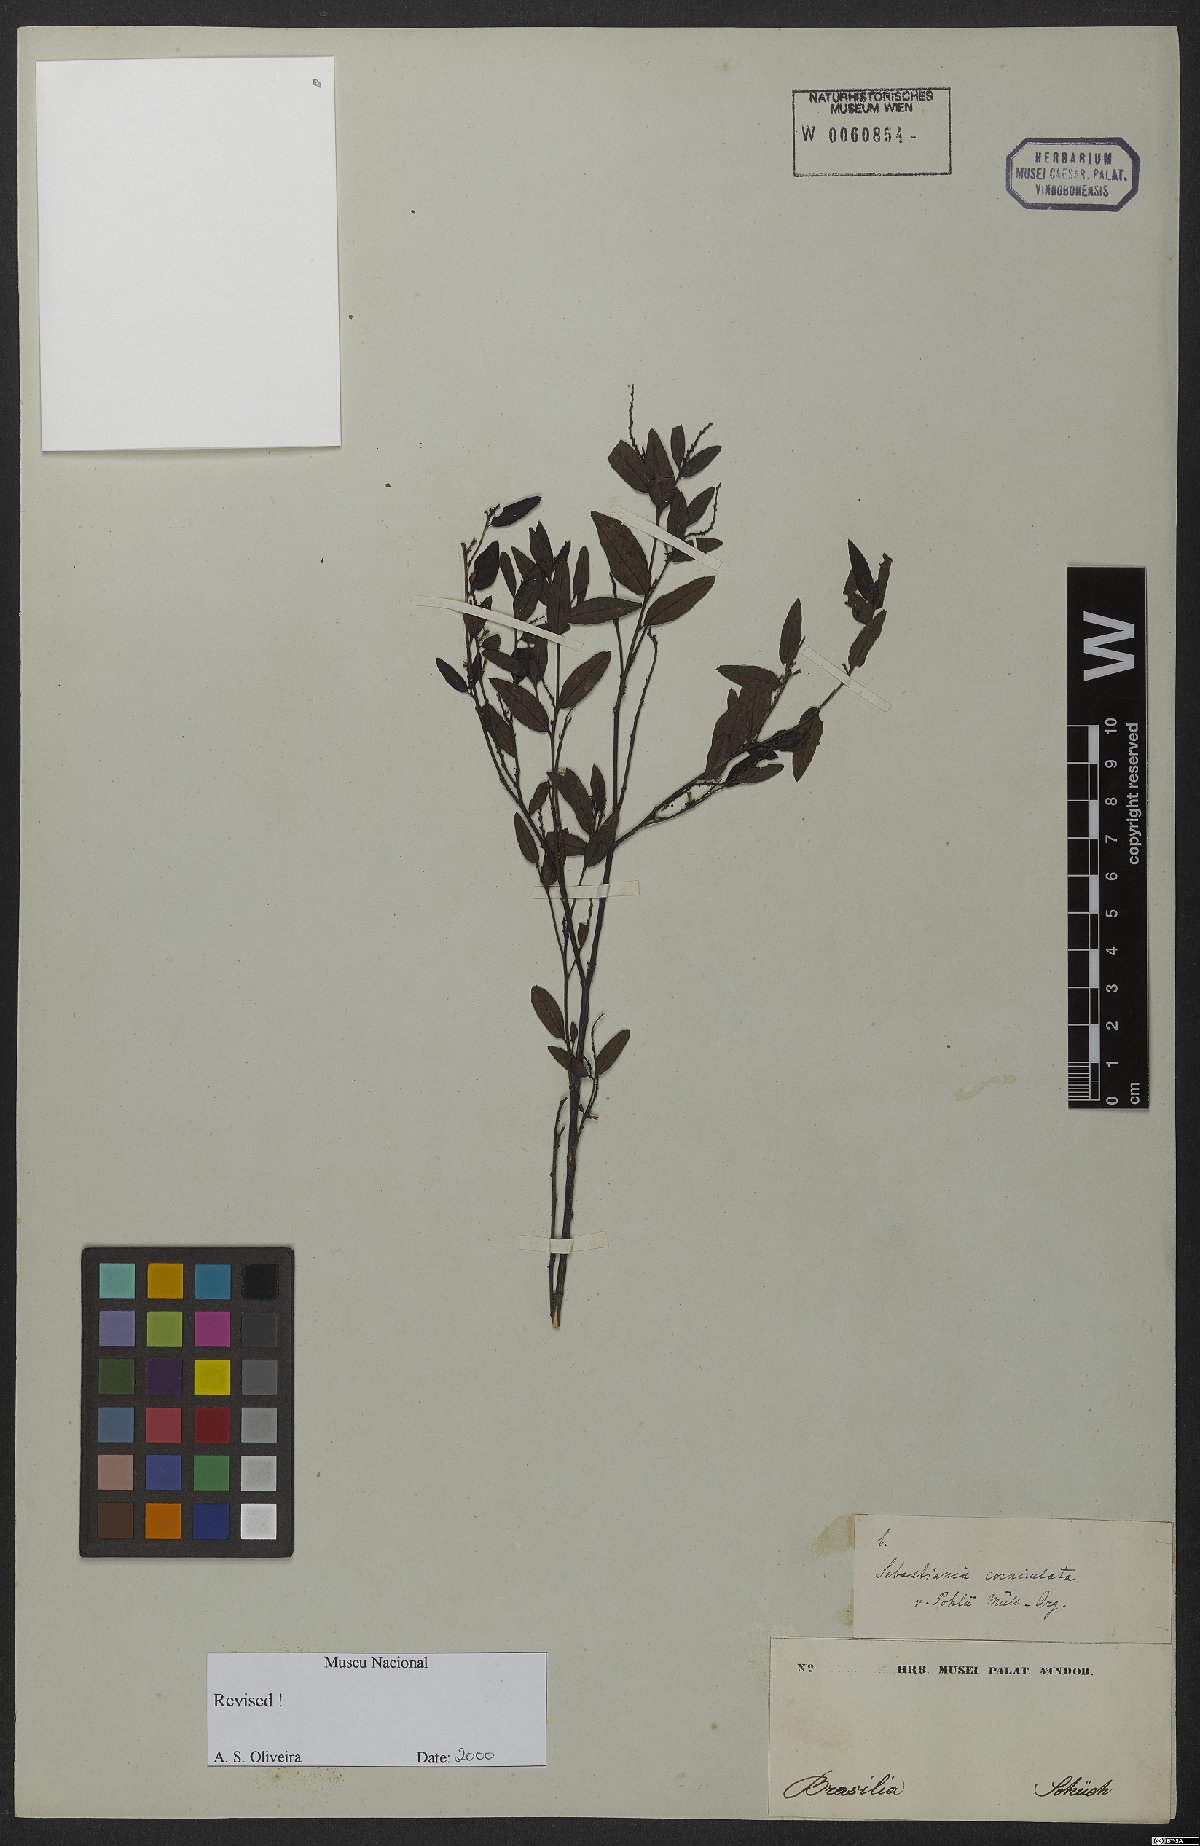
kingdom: Plantae
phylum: Tracheophyta
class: Magnoliopsida
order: Malpighiales
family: Euphorbiaceae
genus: Microstachys
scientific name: Microstachys corniculata
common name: Hato tejas
